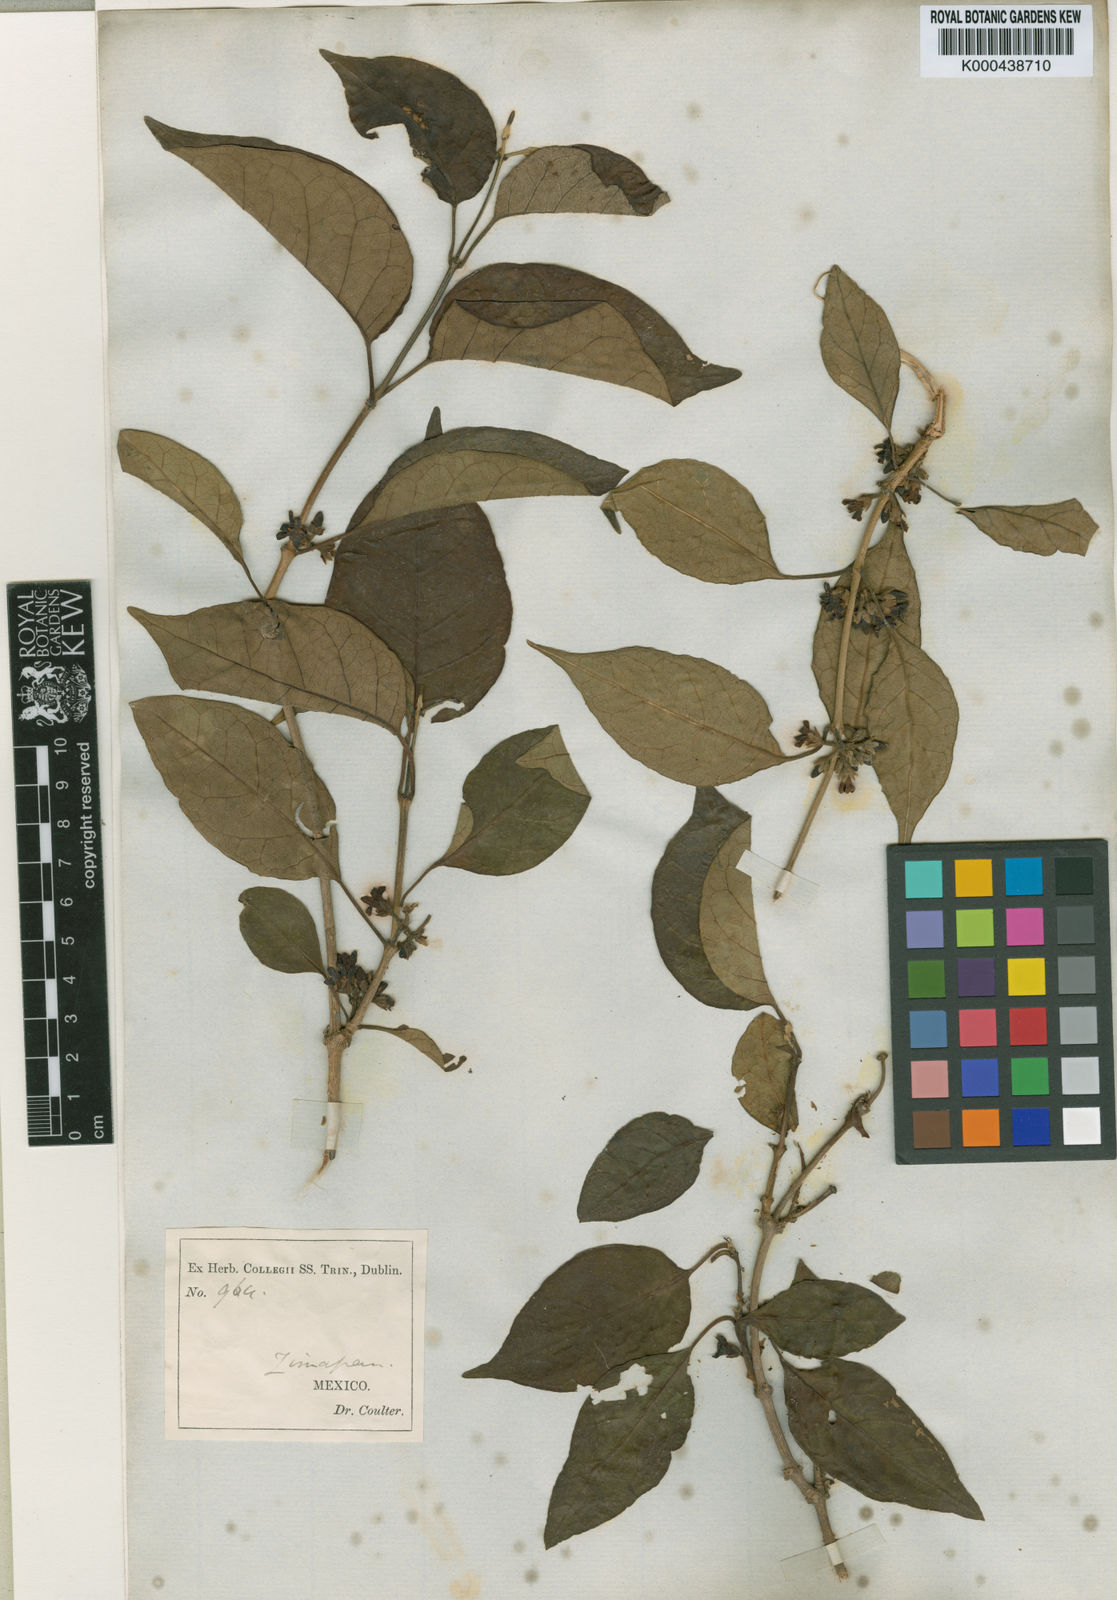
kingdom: Plantae
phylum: Tracheophyta
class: Magnoliopsida
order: Gentianales
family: Apocynaceae
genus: Ruehssia
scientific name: Ruehssia zimapanica
